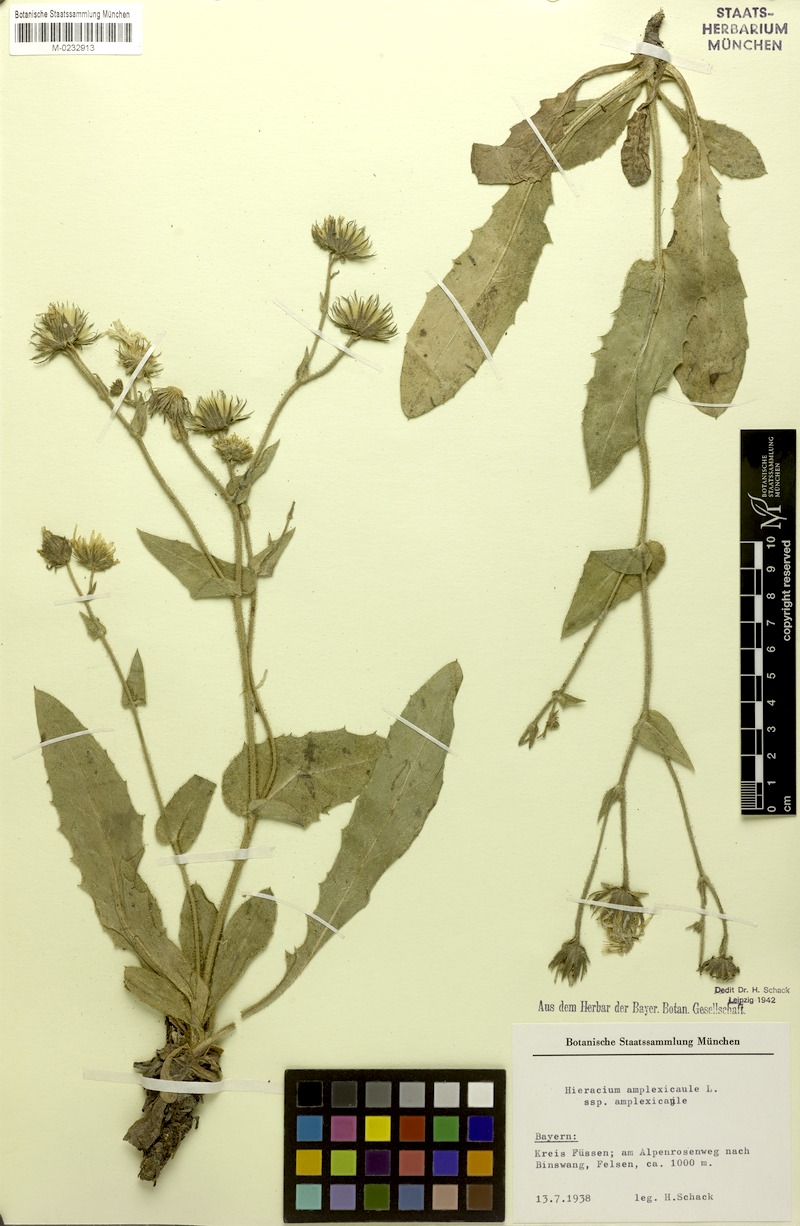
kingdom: Plantae
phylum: Tracheophyta
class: Magnoliopsida
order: Asterales
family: Asteraceae
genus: Hieracium
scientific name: Hieracium amplexicaule
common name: Sticky hawkweed
